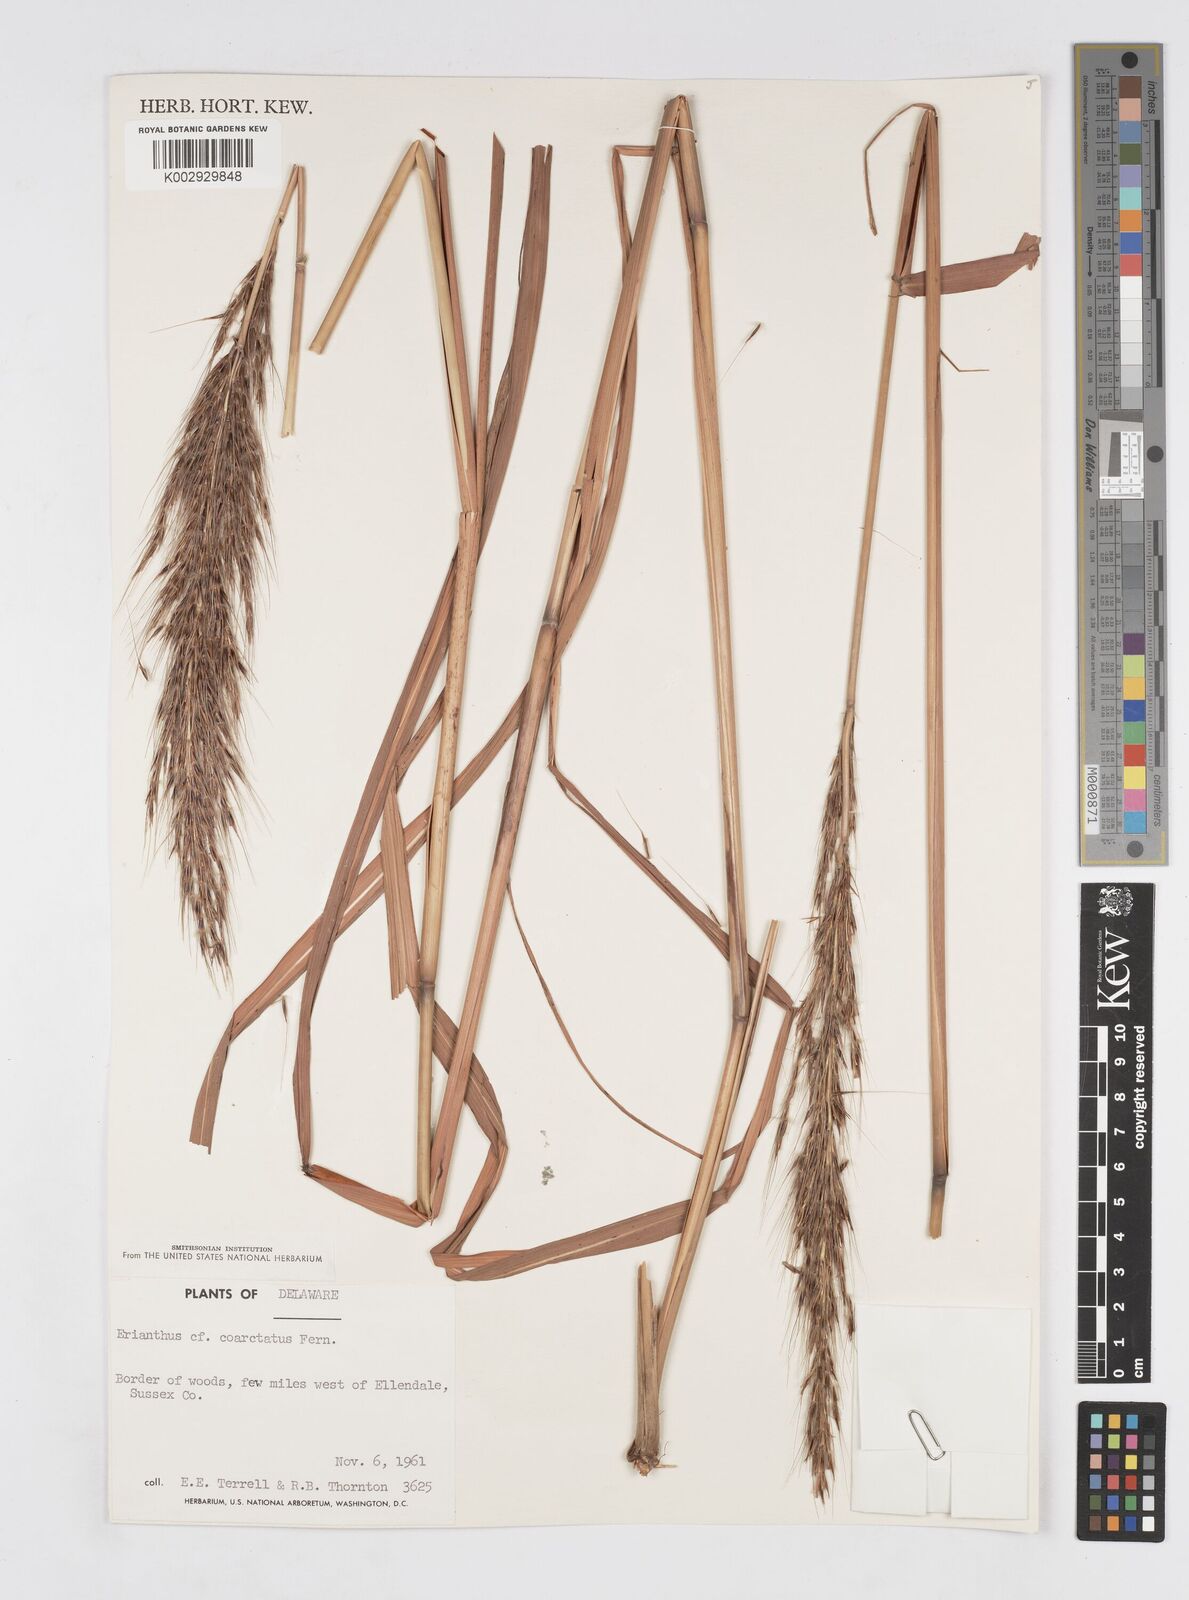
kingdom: Plantae
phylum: Tracheophyta
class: Liliopsida
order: Poales
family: Poaceae
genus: Saccharum
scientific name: Saccharum
